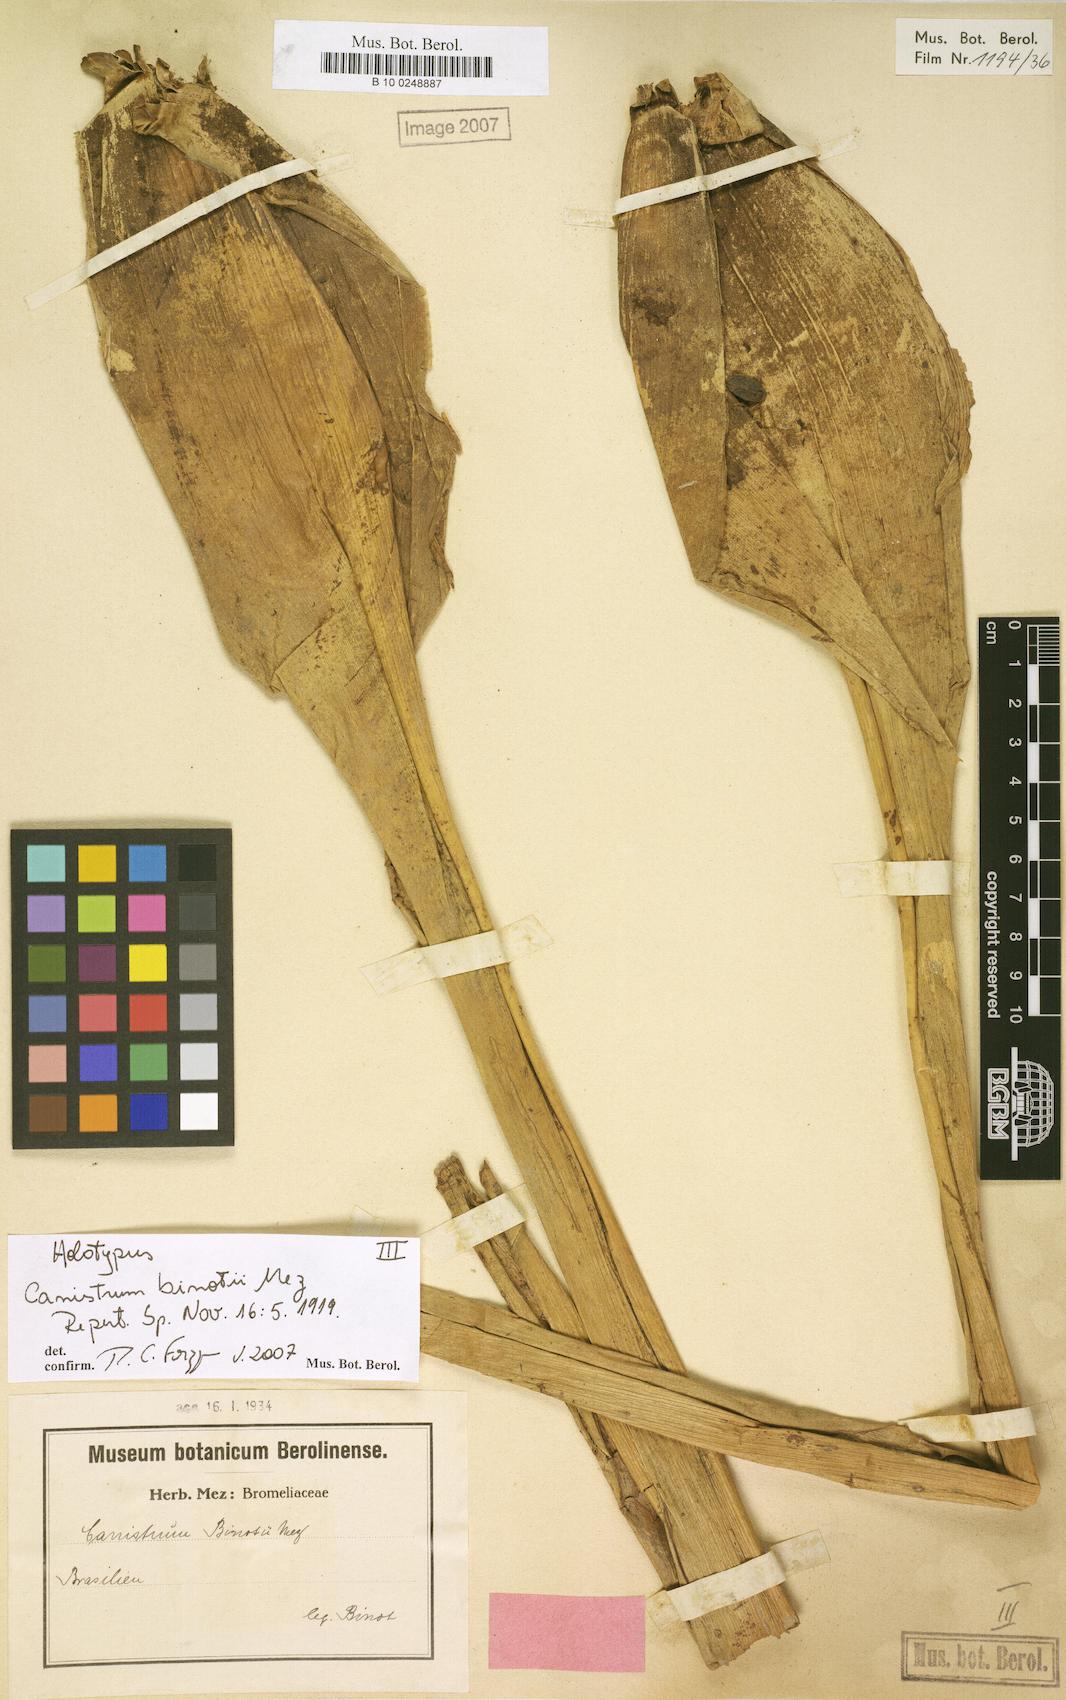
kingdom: Plantae
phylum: Tracheophyta
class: Liliopsida
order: Poales
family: Bromeliaceae
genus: Edmundoa
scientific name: Edmundoa lindenii
